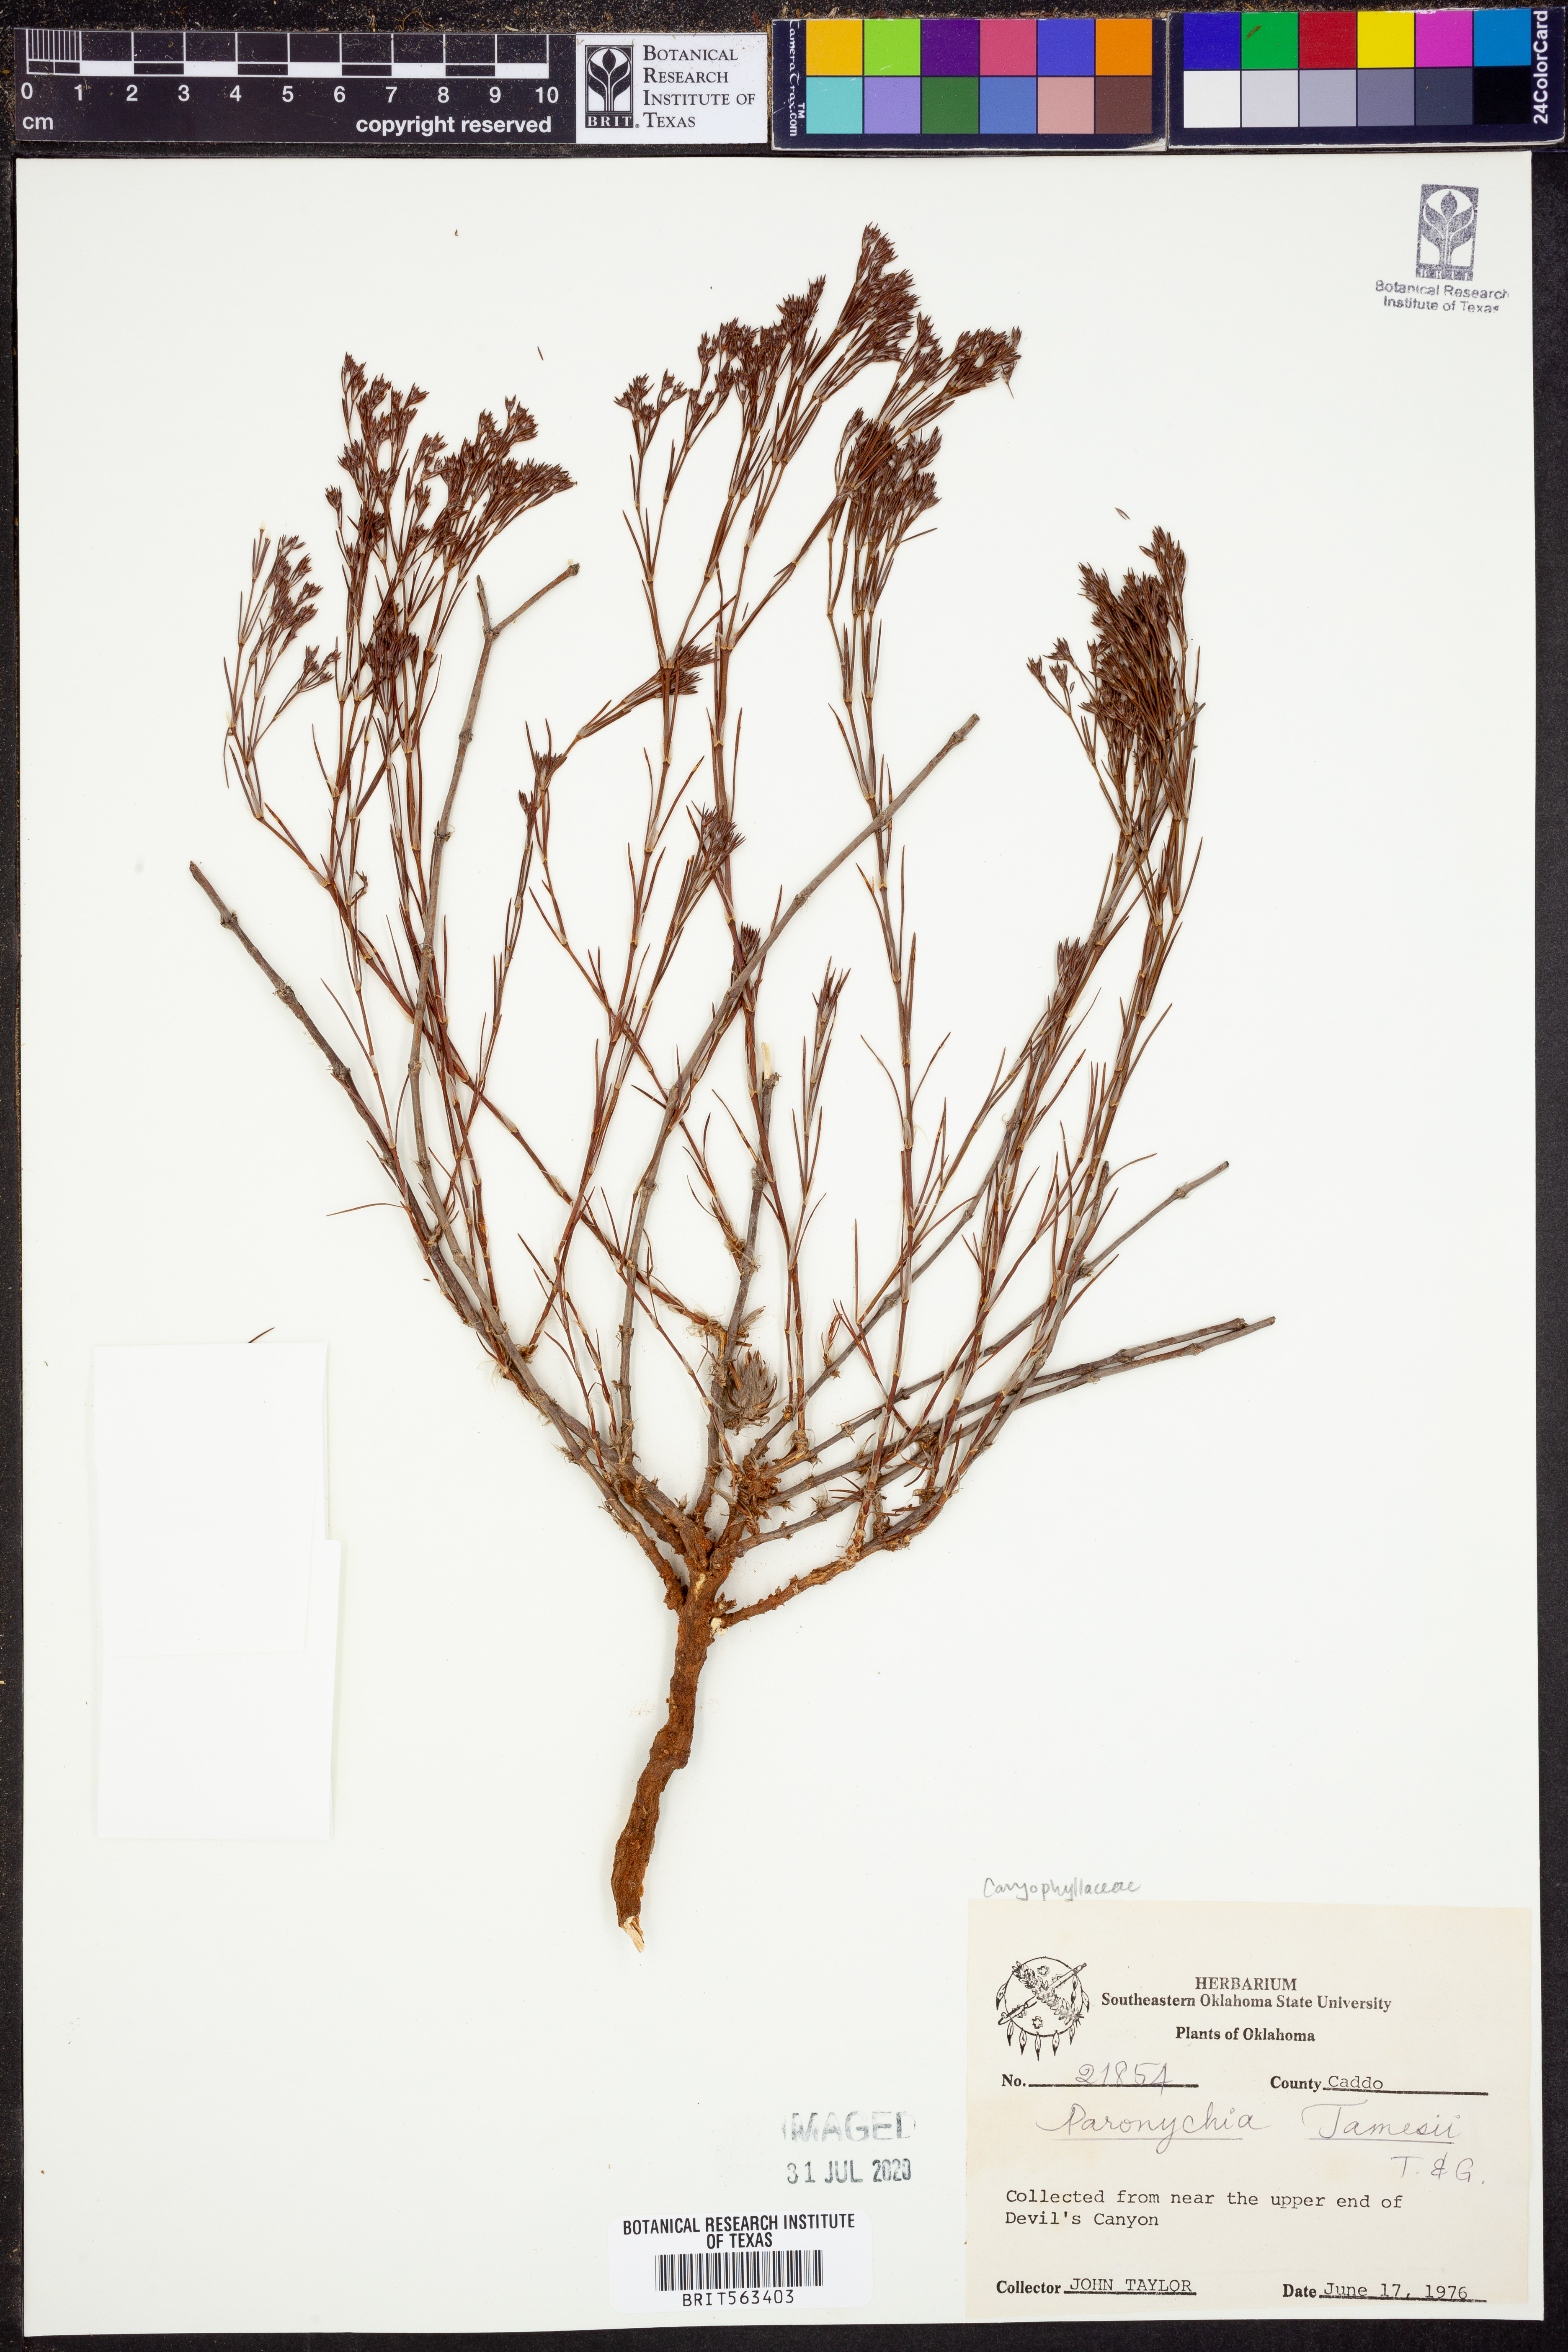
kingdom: Plantae
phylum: Tracheophyta
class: Magnoliopsida
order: Caryophyllales
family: Caryophyllaceae
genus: Paronychia
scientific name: Paronychia jamesii
